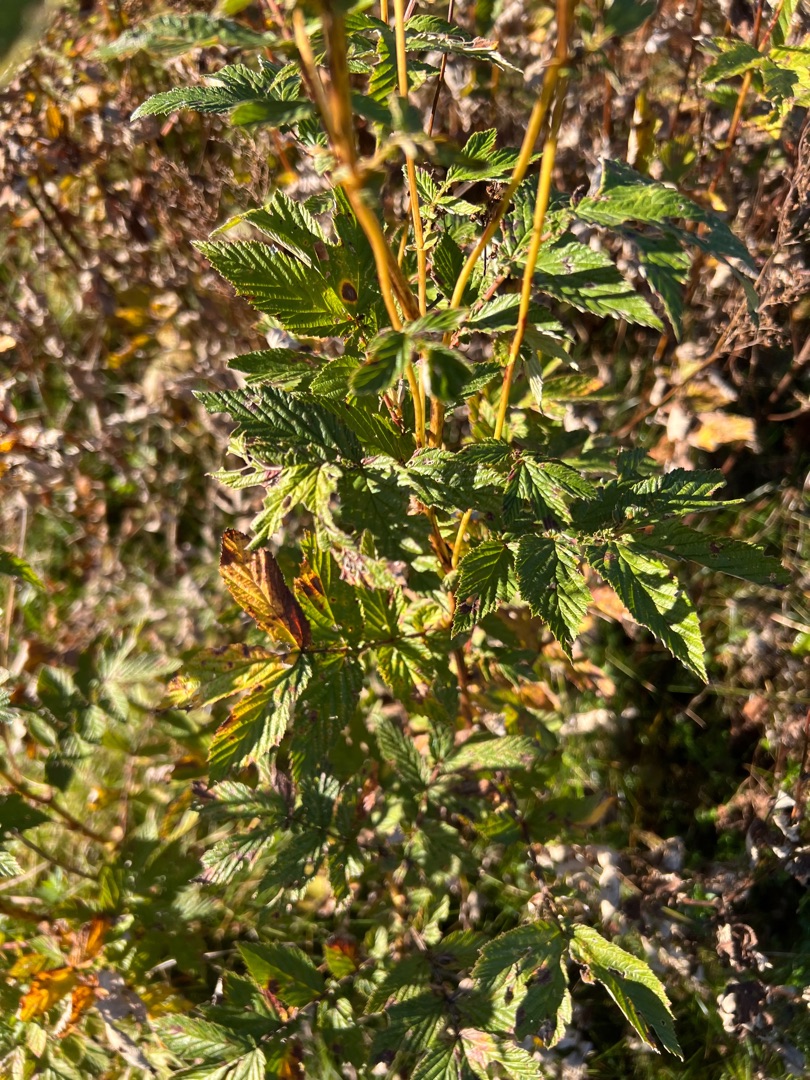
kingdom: Plantae
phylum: Tracheophyta
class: Magnoliopsida
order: Rosales
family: Rosaceae
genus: Filipendula
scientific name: Filipendula ulmaria
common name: Almindelig mjødurt
